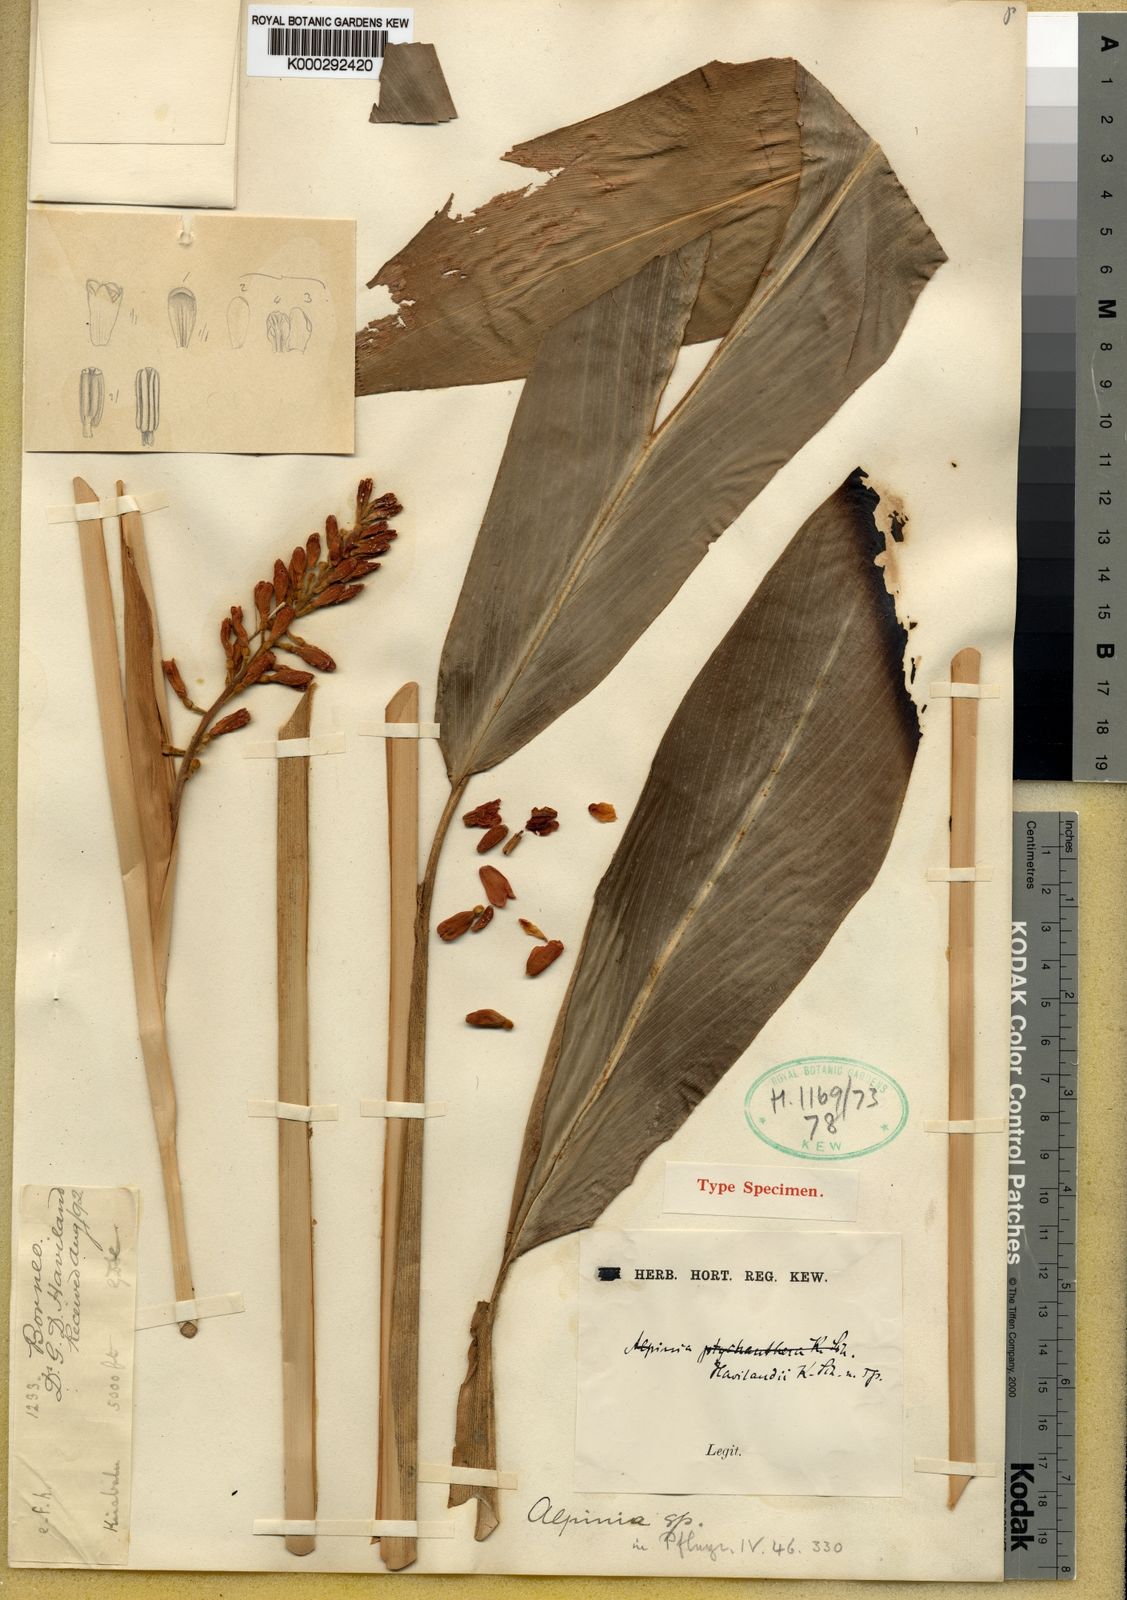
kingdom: Plantae
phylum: Tracheophyta
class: Liliopsida
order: Zingiberales
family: Zingiberaceae
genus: Alpinia
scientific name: Alpinia havilandii
